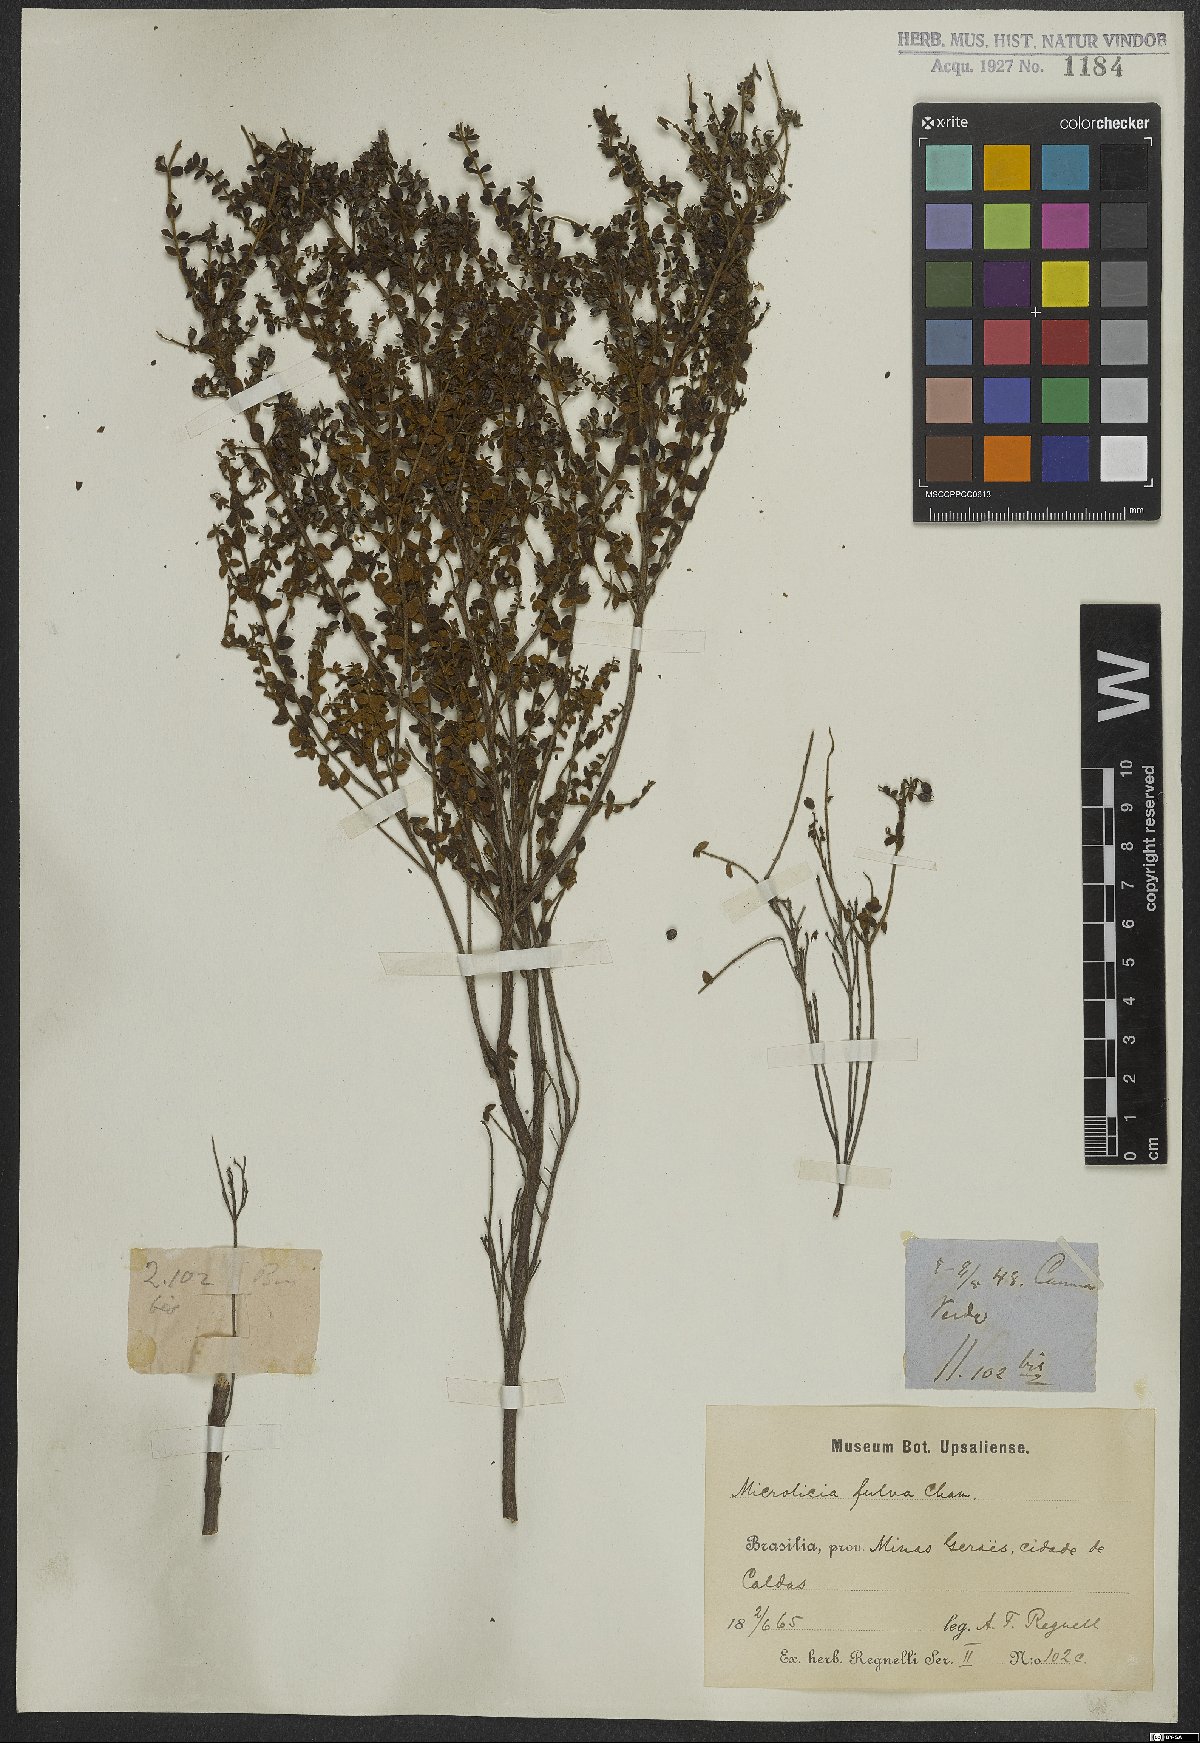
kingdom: Plantae
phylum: Tracheophyta
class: Magnoliopsida
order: Myrtales
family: Melastomataceae
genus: Microlicia
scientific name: Microlicia fulva
